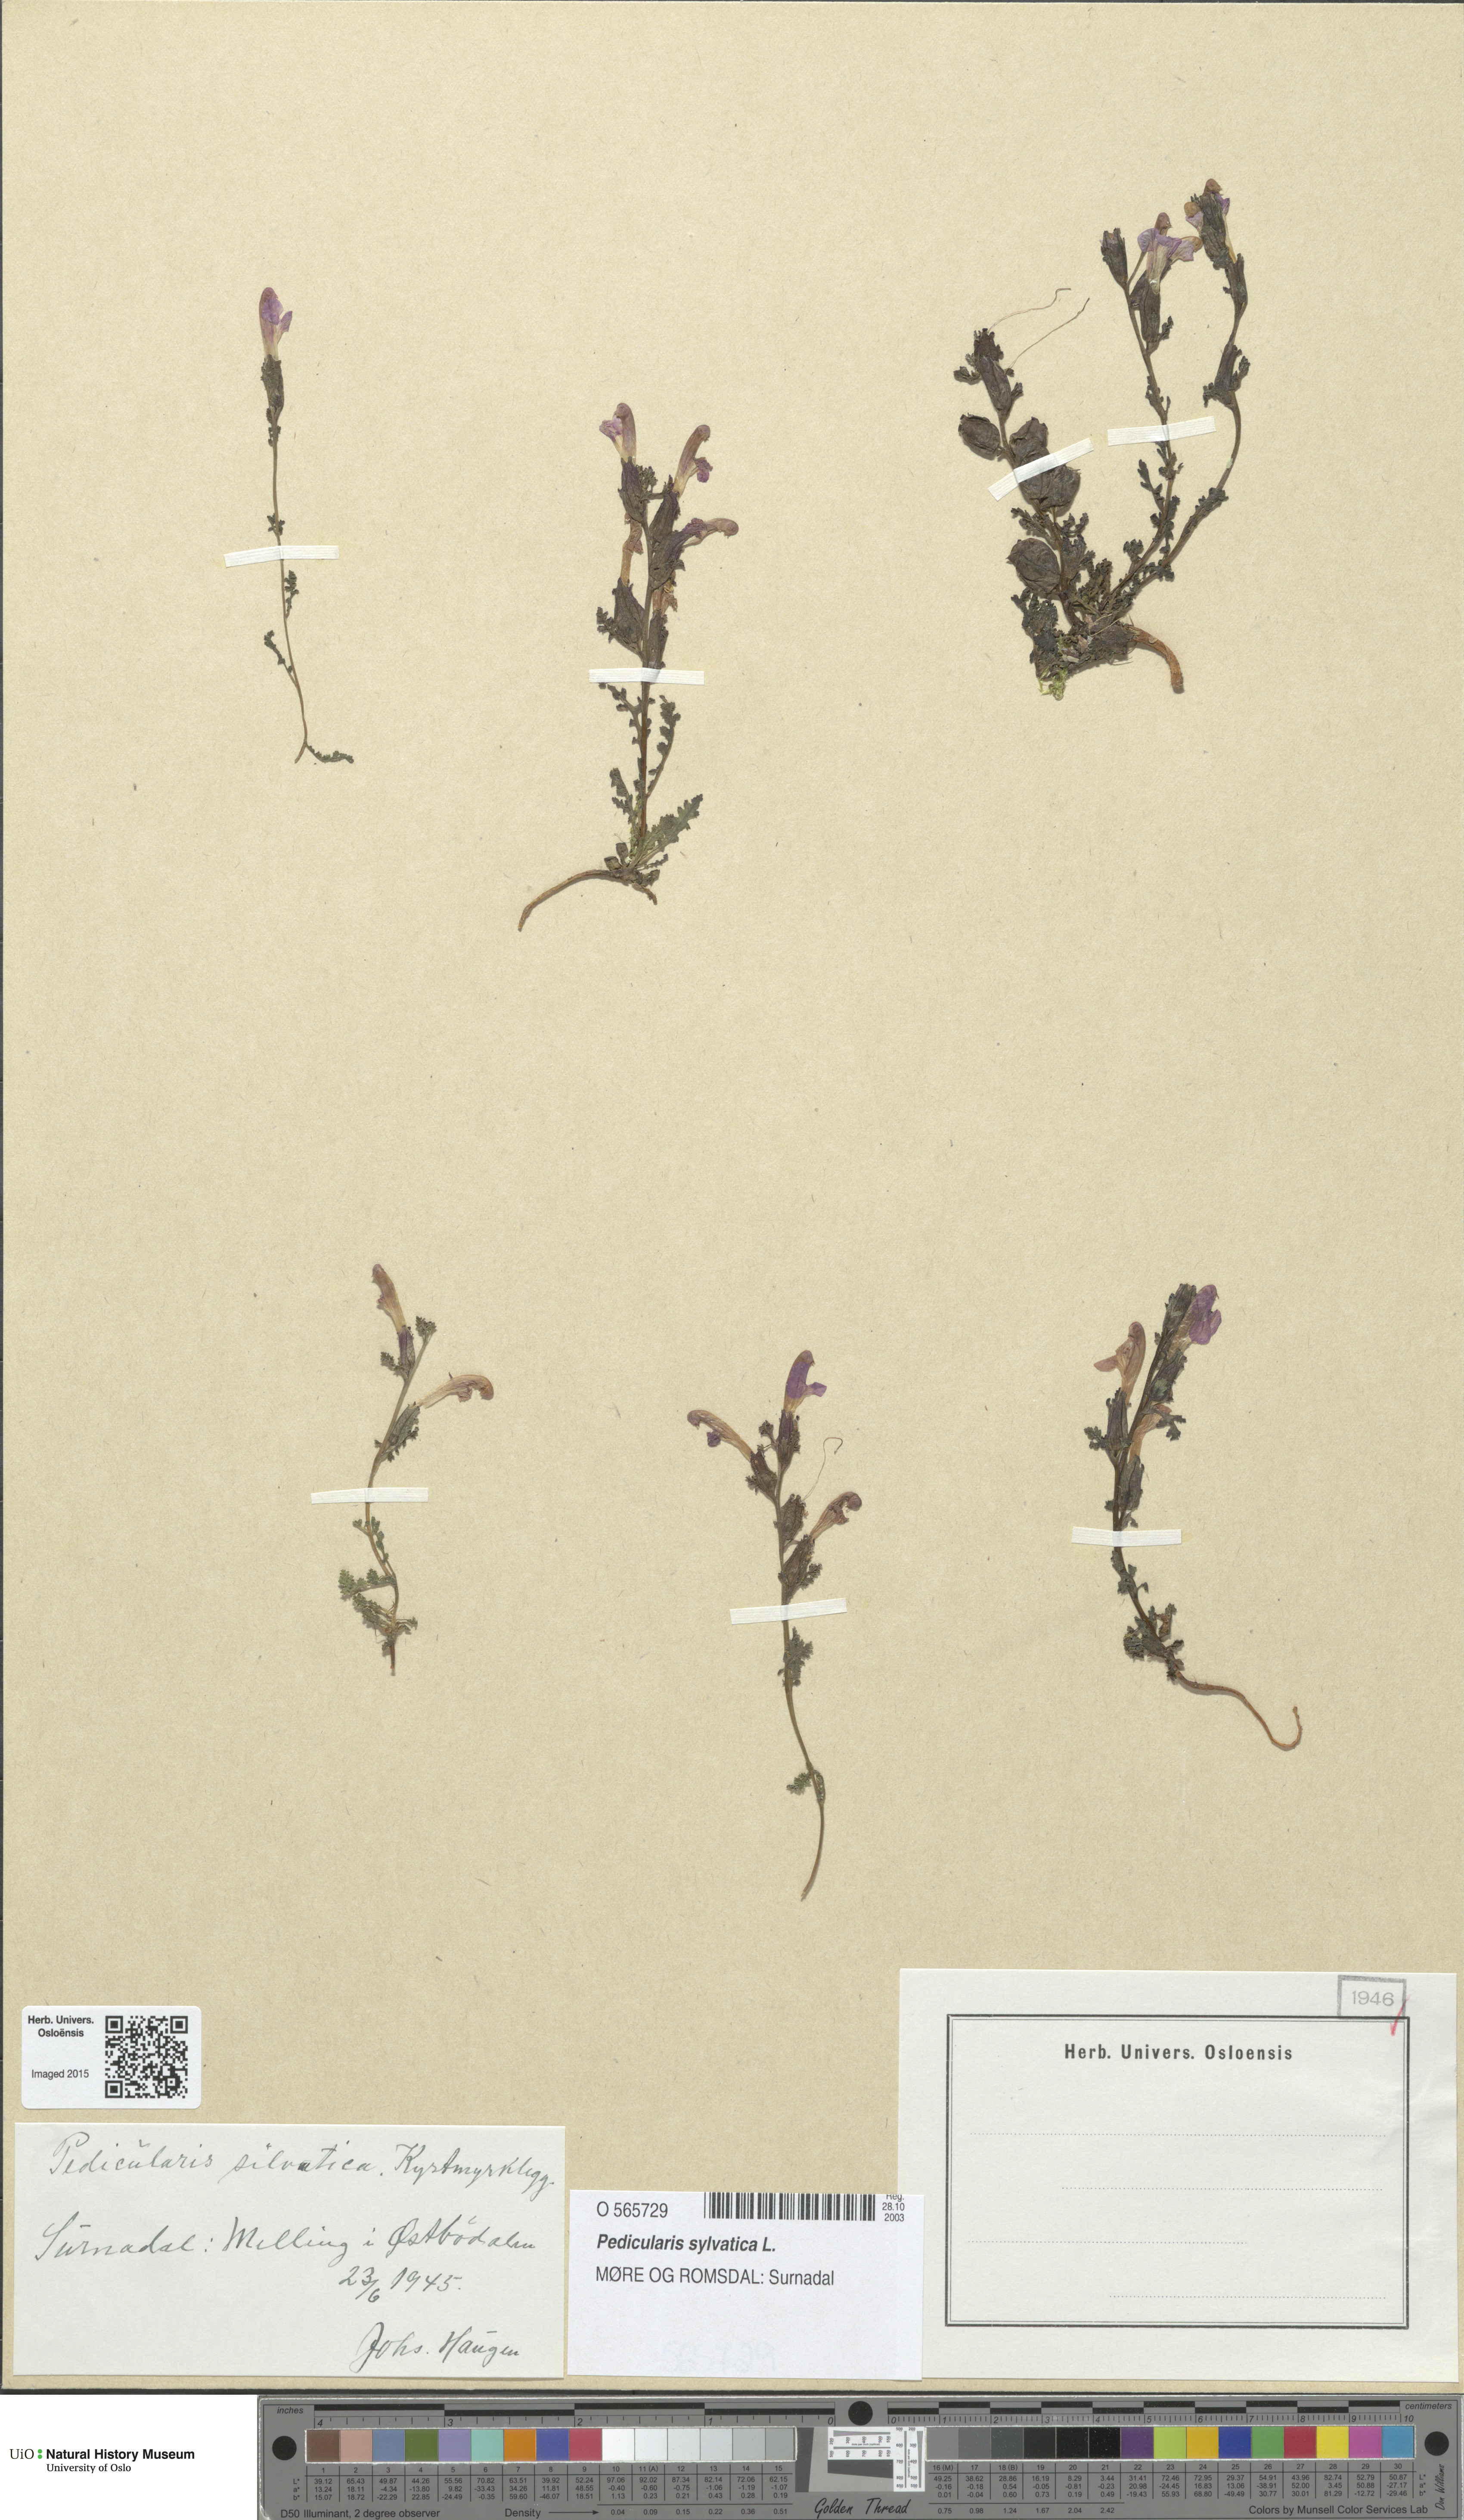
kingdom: Plantae
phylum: Tracheophyta
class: Magnoliopsida
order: Lamiales
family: Orobanchaceae
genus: Pedicularis
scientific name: Pedicularis sylvatica
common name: Lousewort
